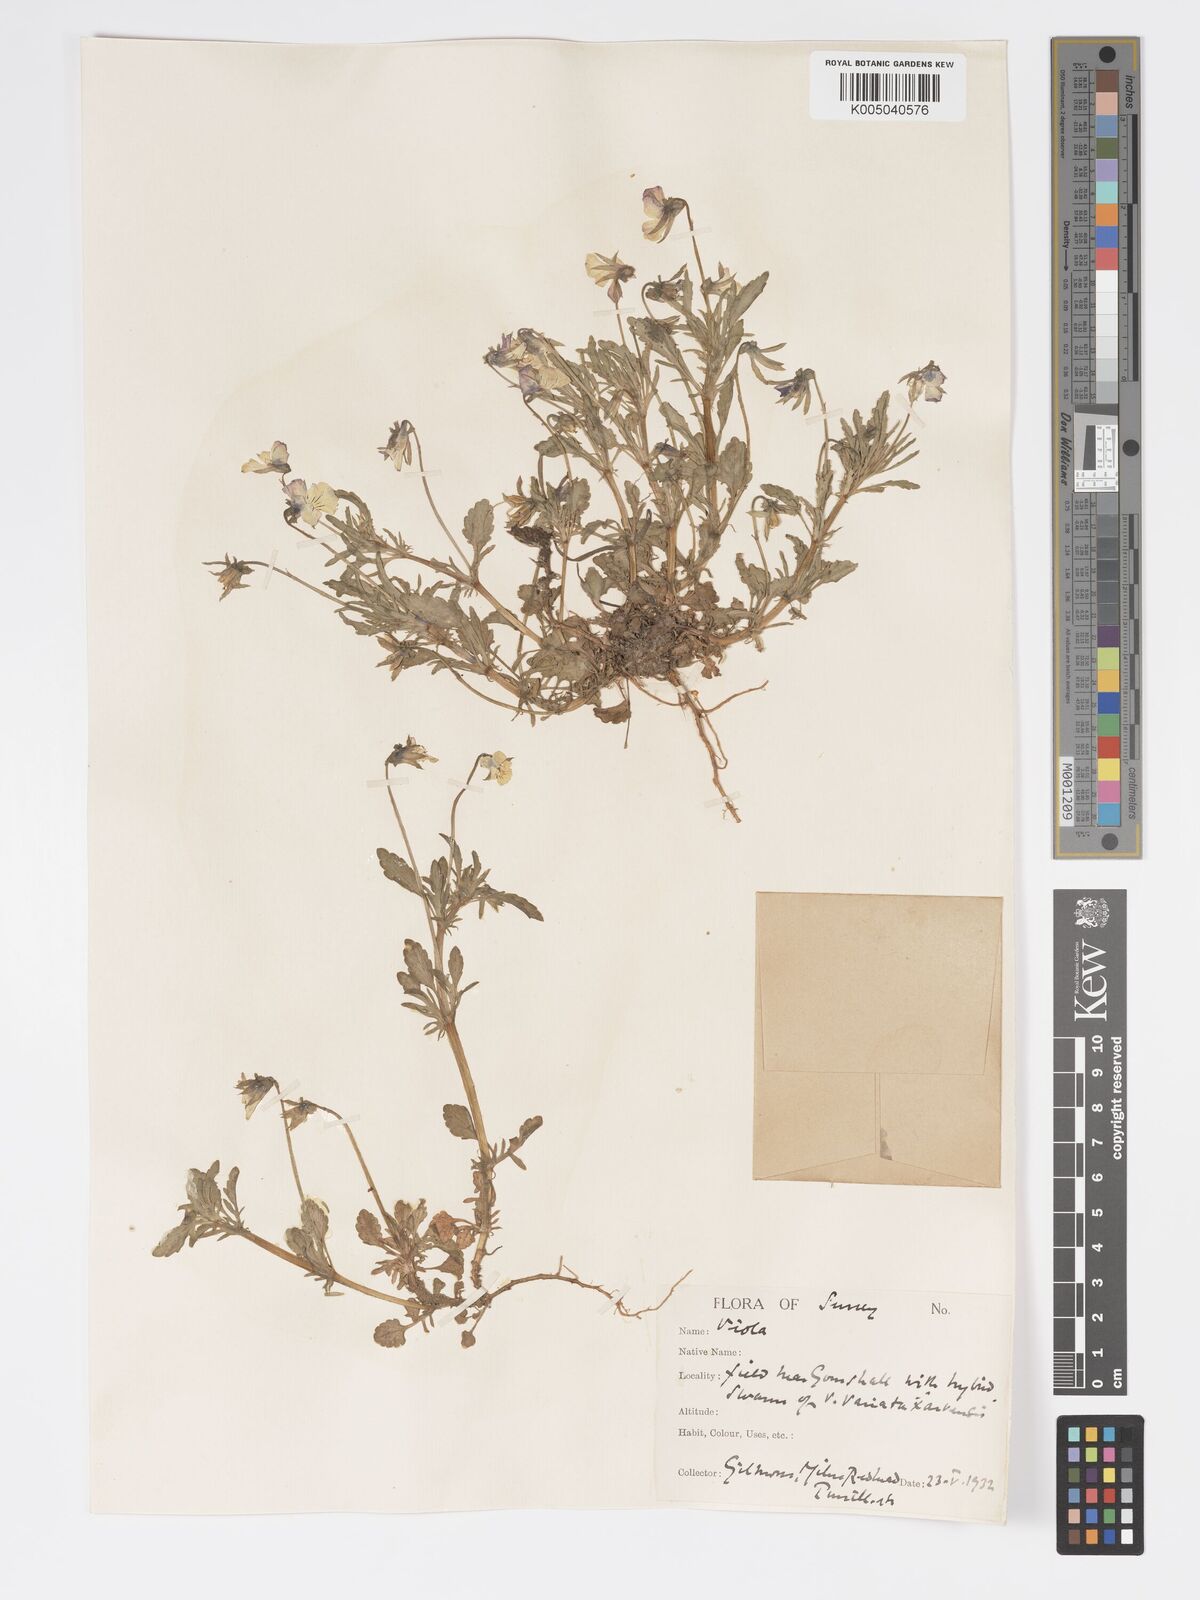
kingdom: Plantae
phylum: Tracheophyta
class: Magnoliopsida
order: Malpighiales
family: Violaceae
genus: Viola
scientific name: Viola
